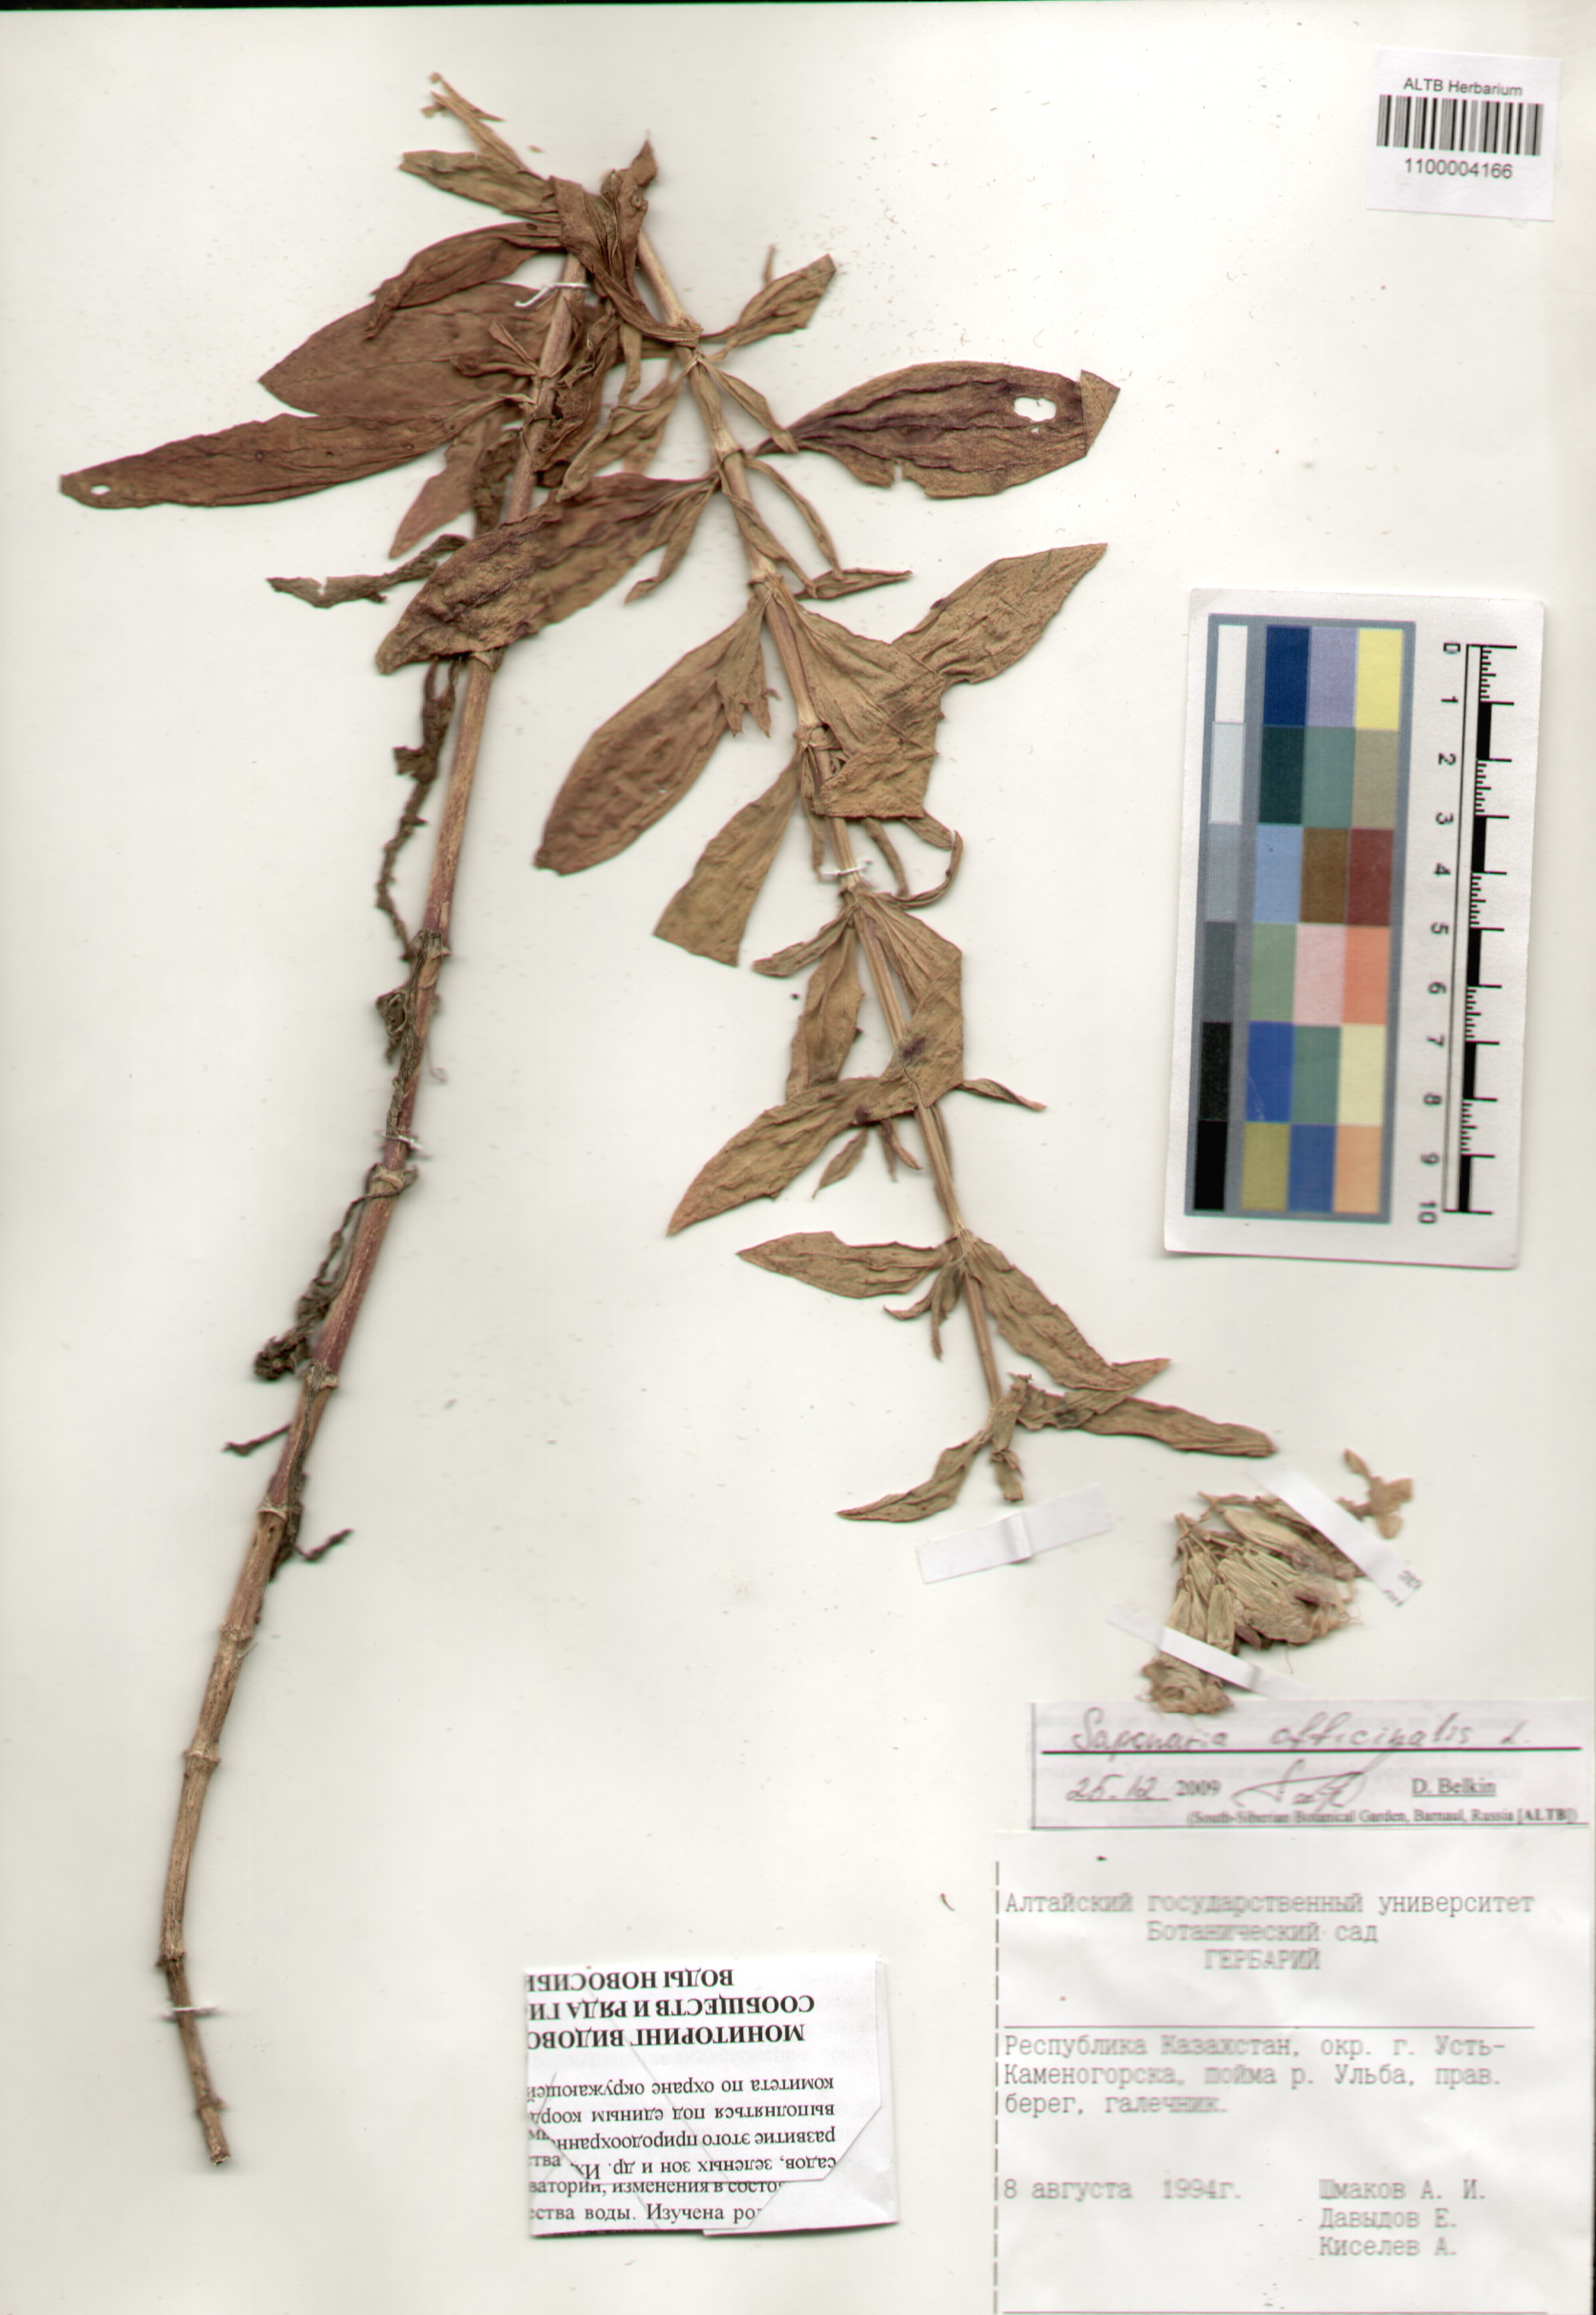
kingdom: Plantae
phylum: Tracheophyta
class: Magnoliopsida
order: Caryophyllales
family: Caryophyllaceae
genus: Saponaria
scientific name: Saponaria officinalis
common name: Soapwort
